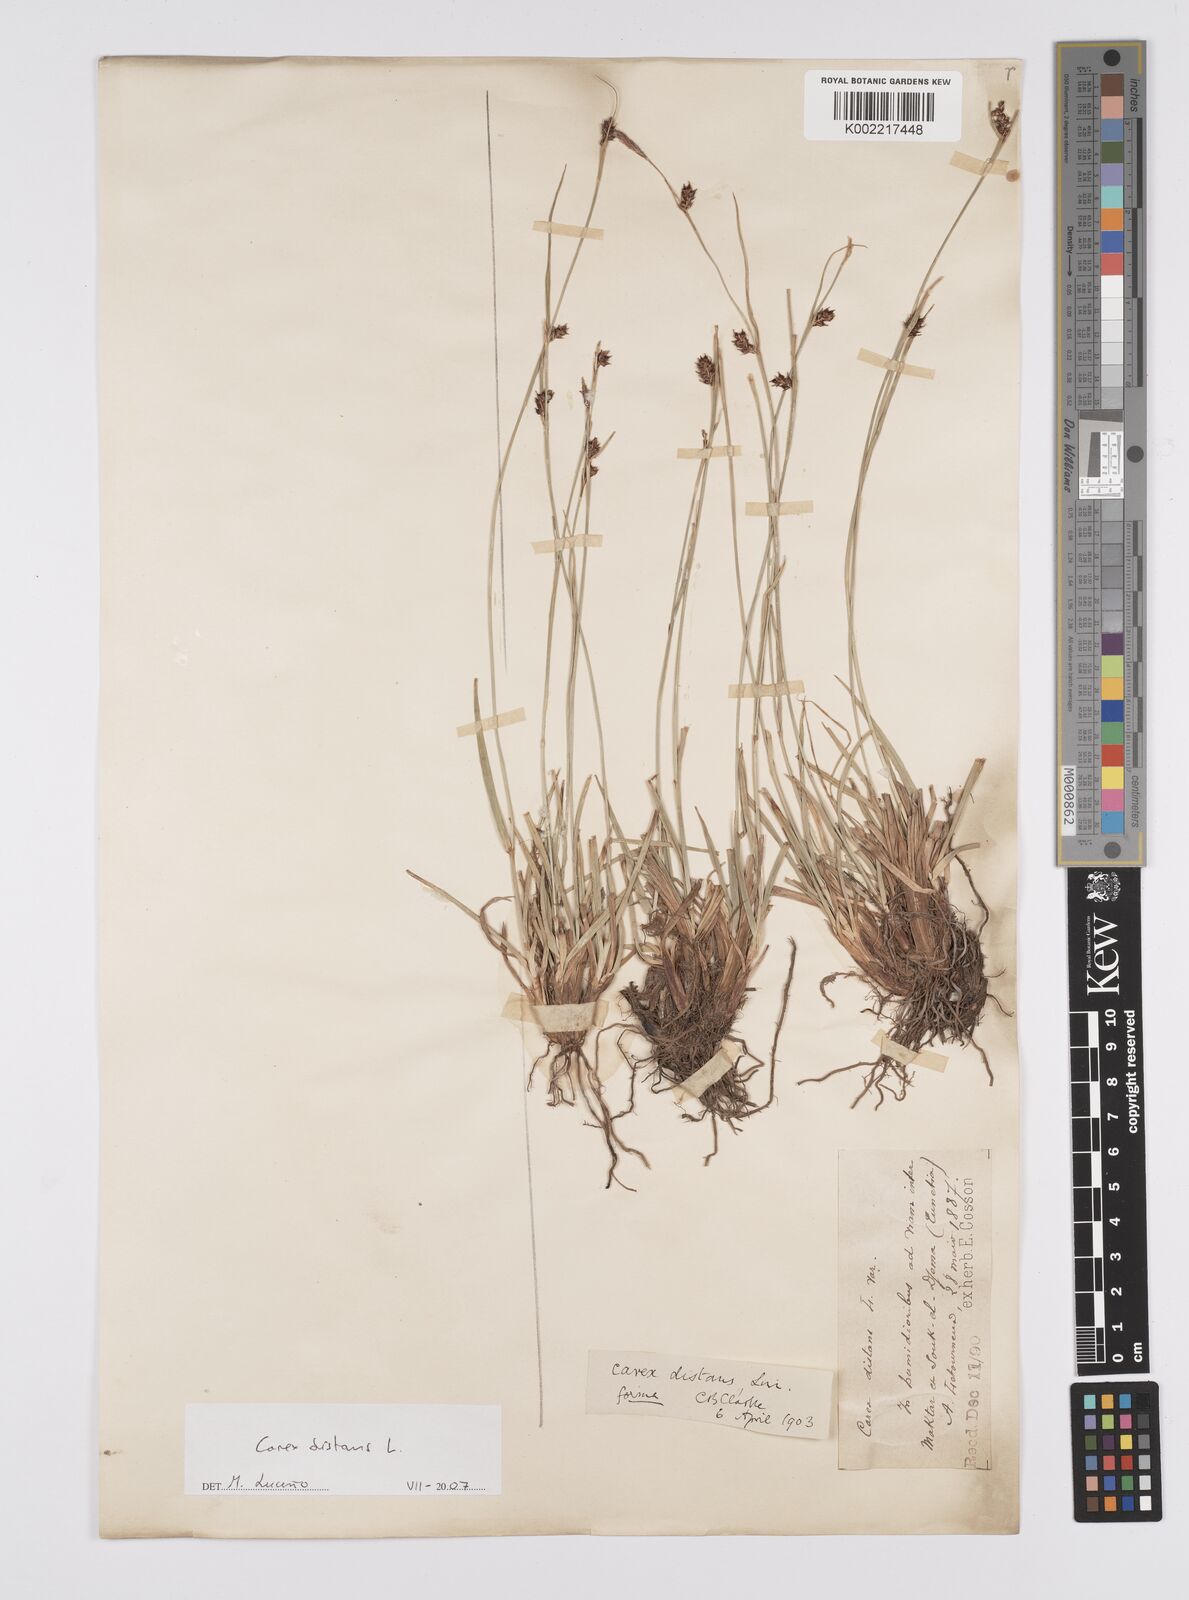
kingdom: Plantae
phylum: Tracheophyta
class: Liliopsida
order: Poales
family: Cyperaceae
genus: Carex
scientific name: Carex distans
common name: Distant sedge
